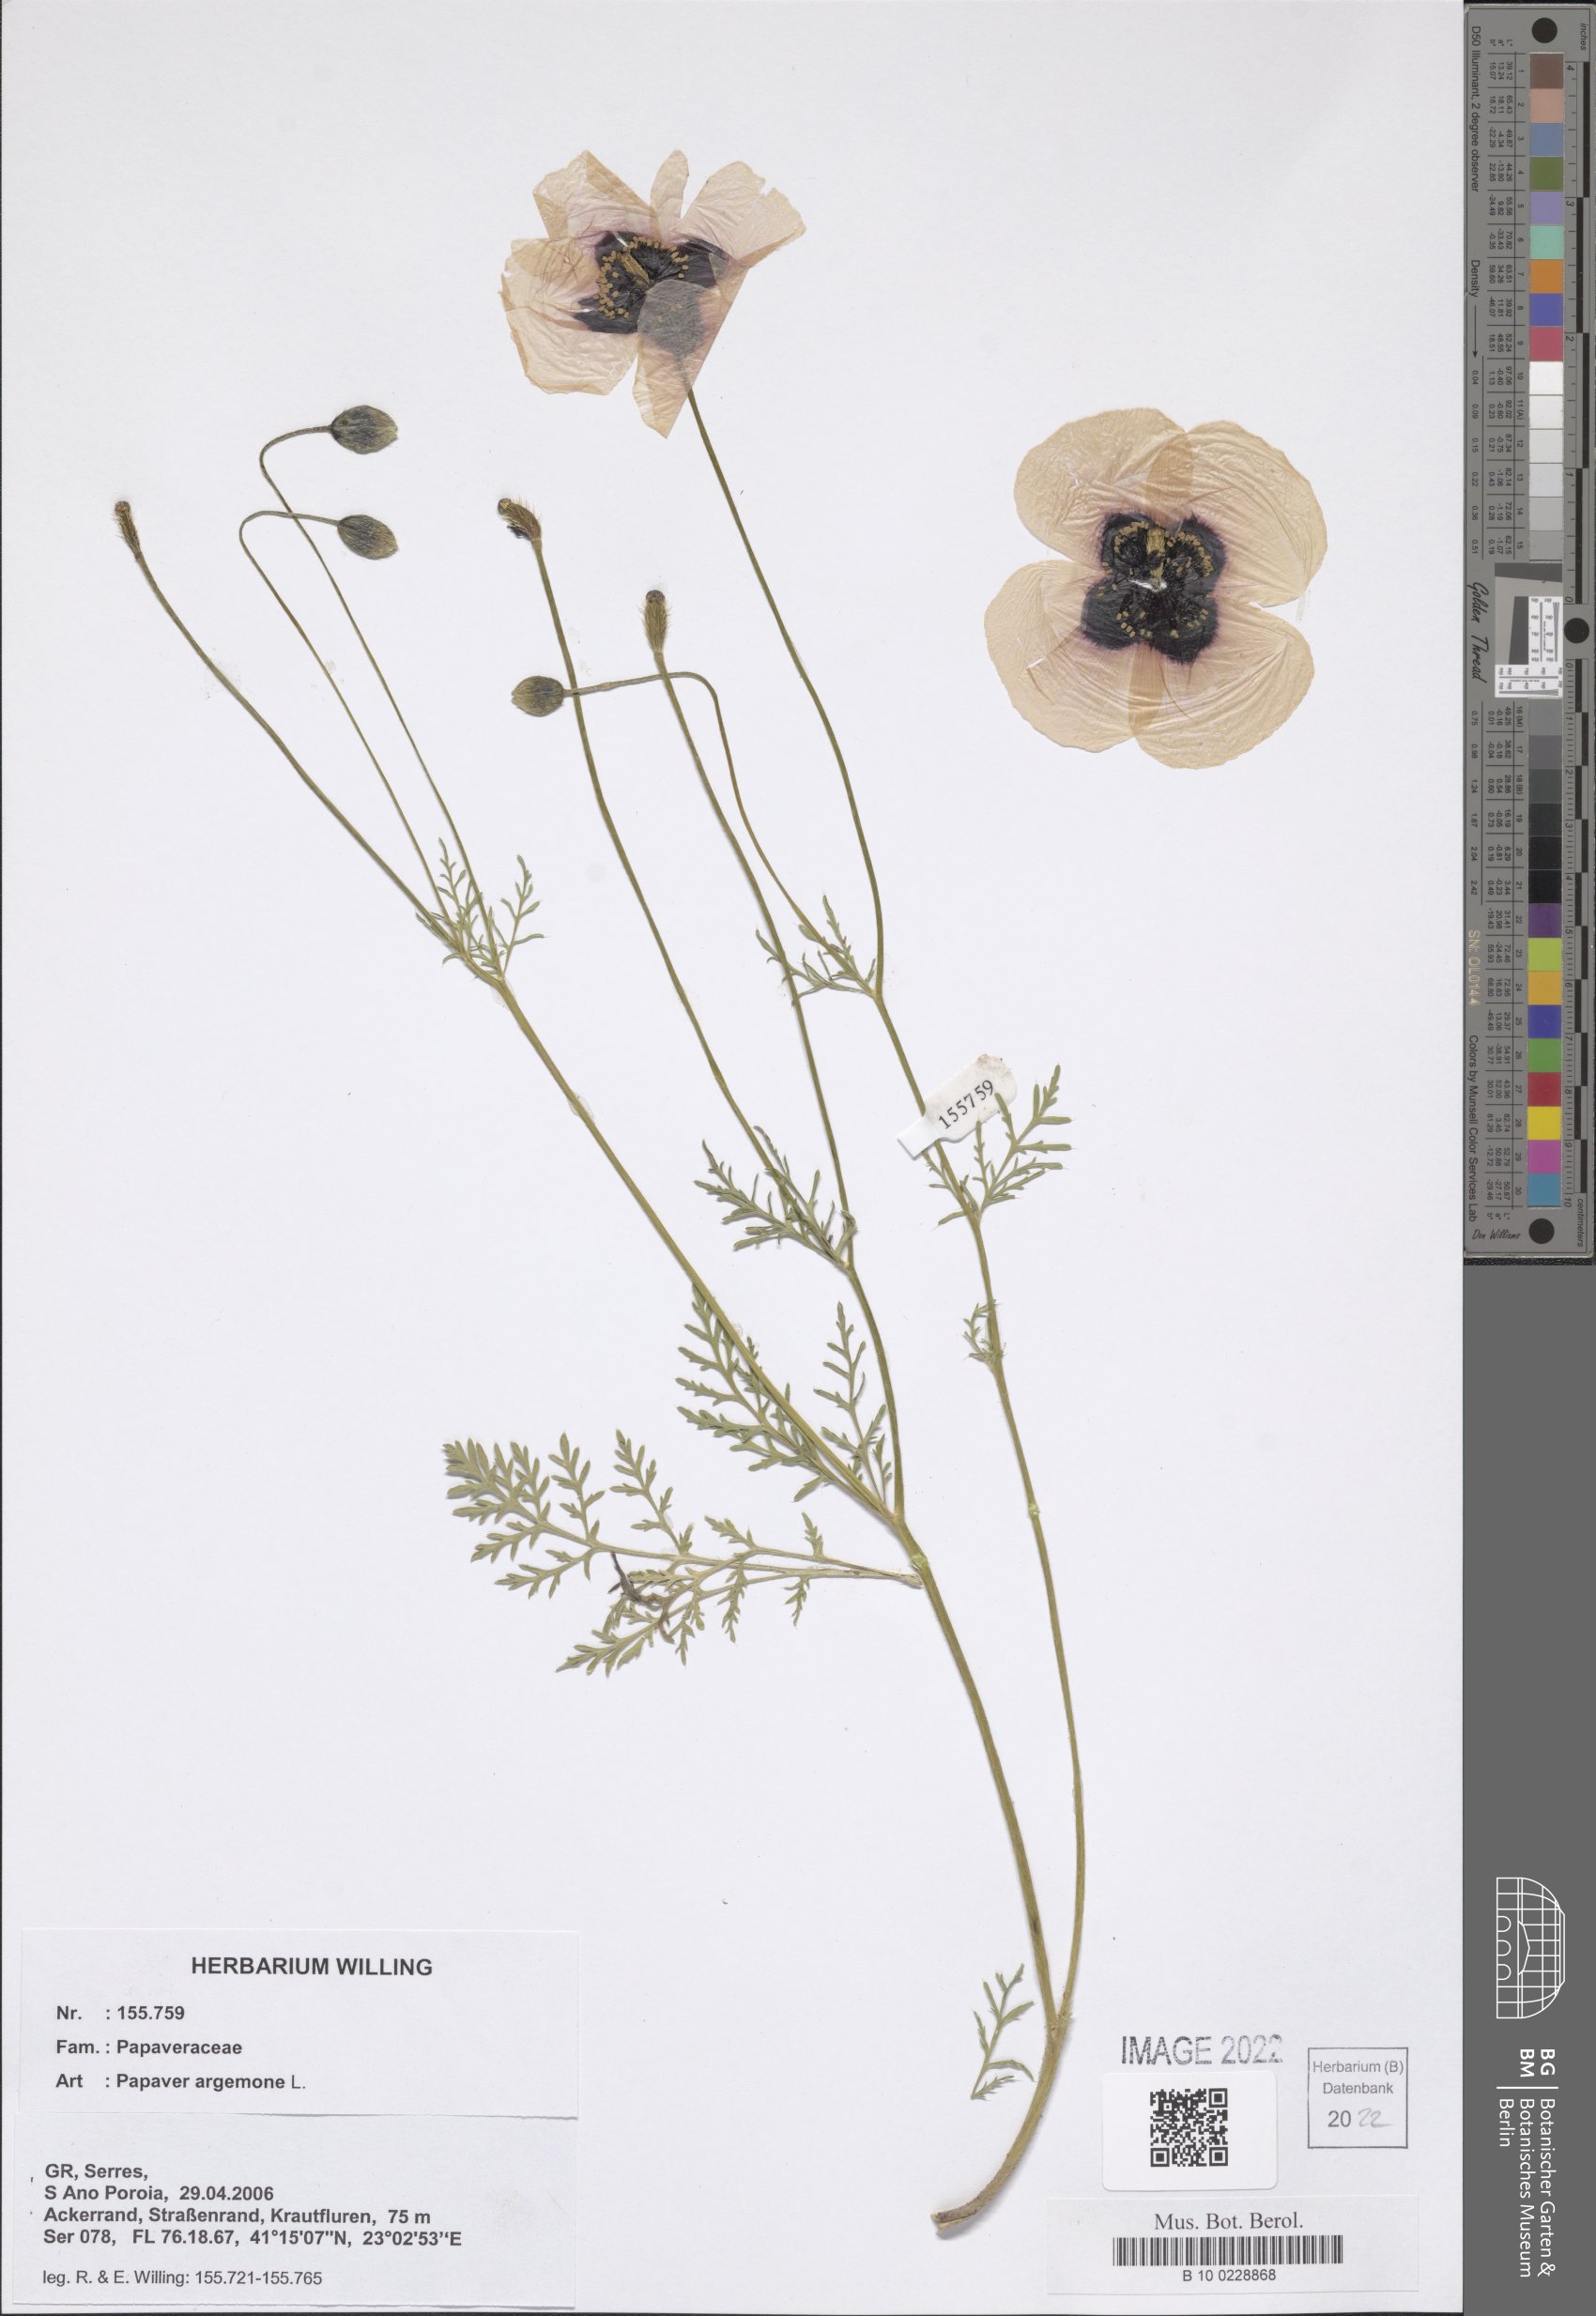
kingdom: Plantae
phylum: Tracheophyta
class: Magnoliopsida
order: Ranunculales
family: Papaveraceae
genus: Roemeria
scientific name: Roemeria argemone
